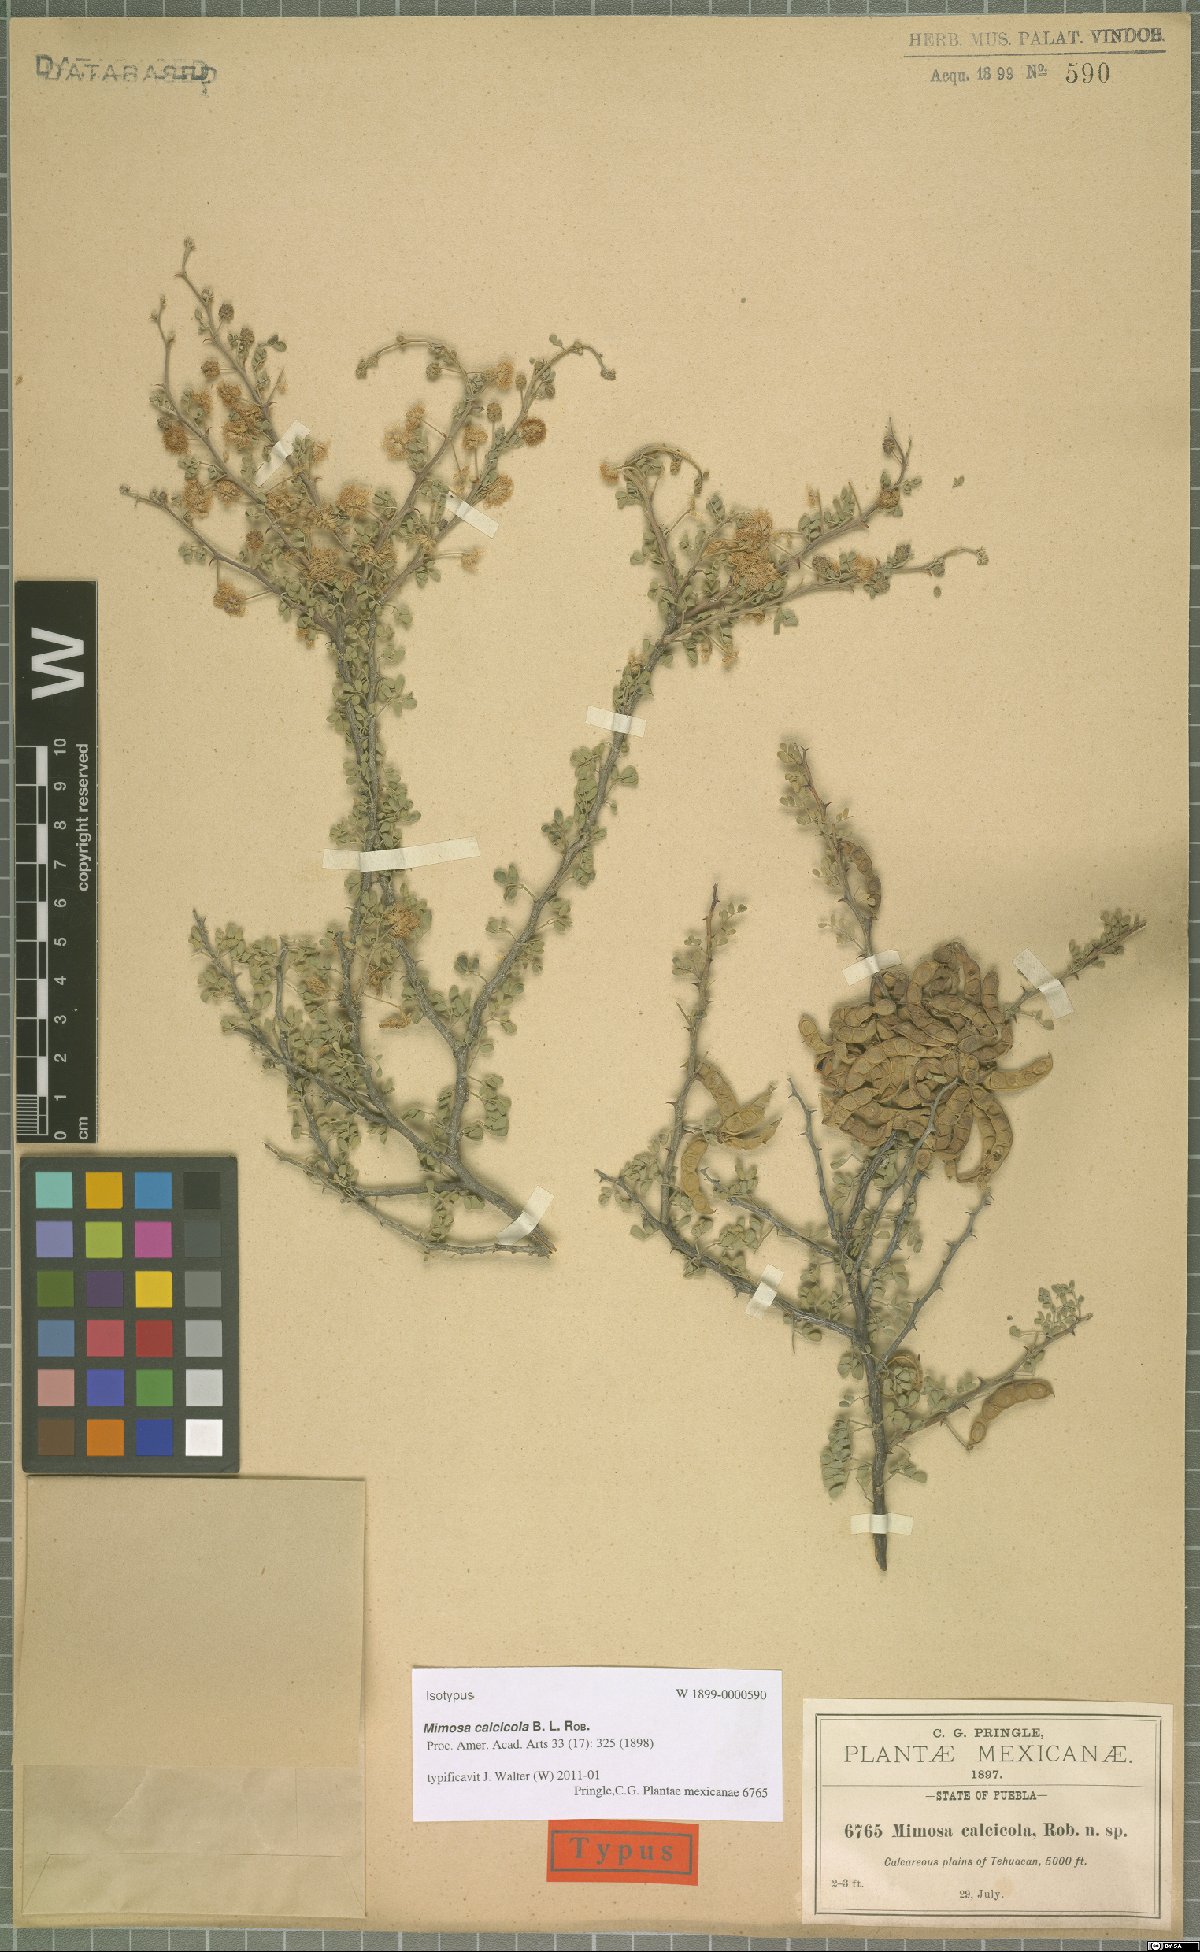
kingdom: Plantae
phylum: Tracheophyta
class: Magnoliopsida
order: Fabales
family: Fabaceae
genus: Mimosa
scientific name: Mimosa calcicola
